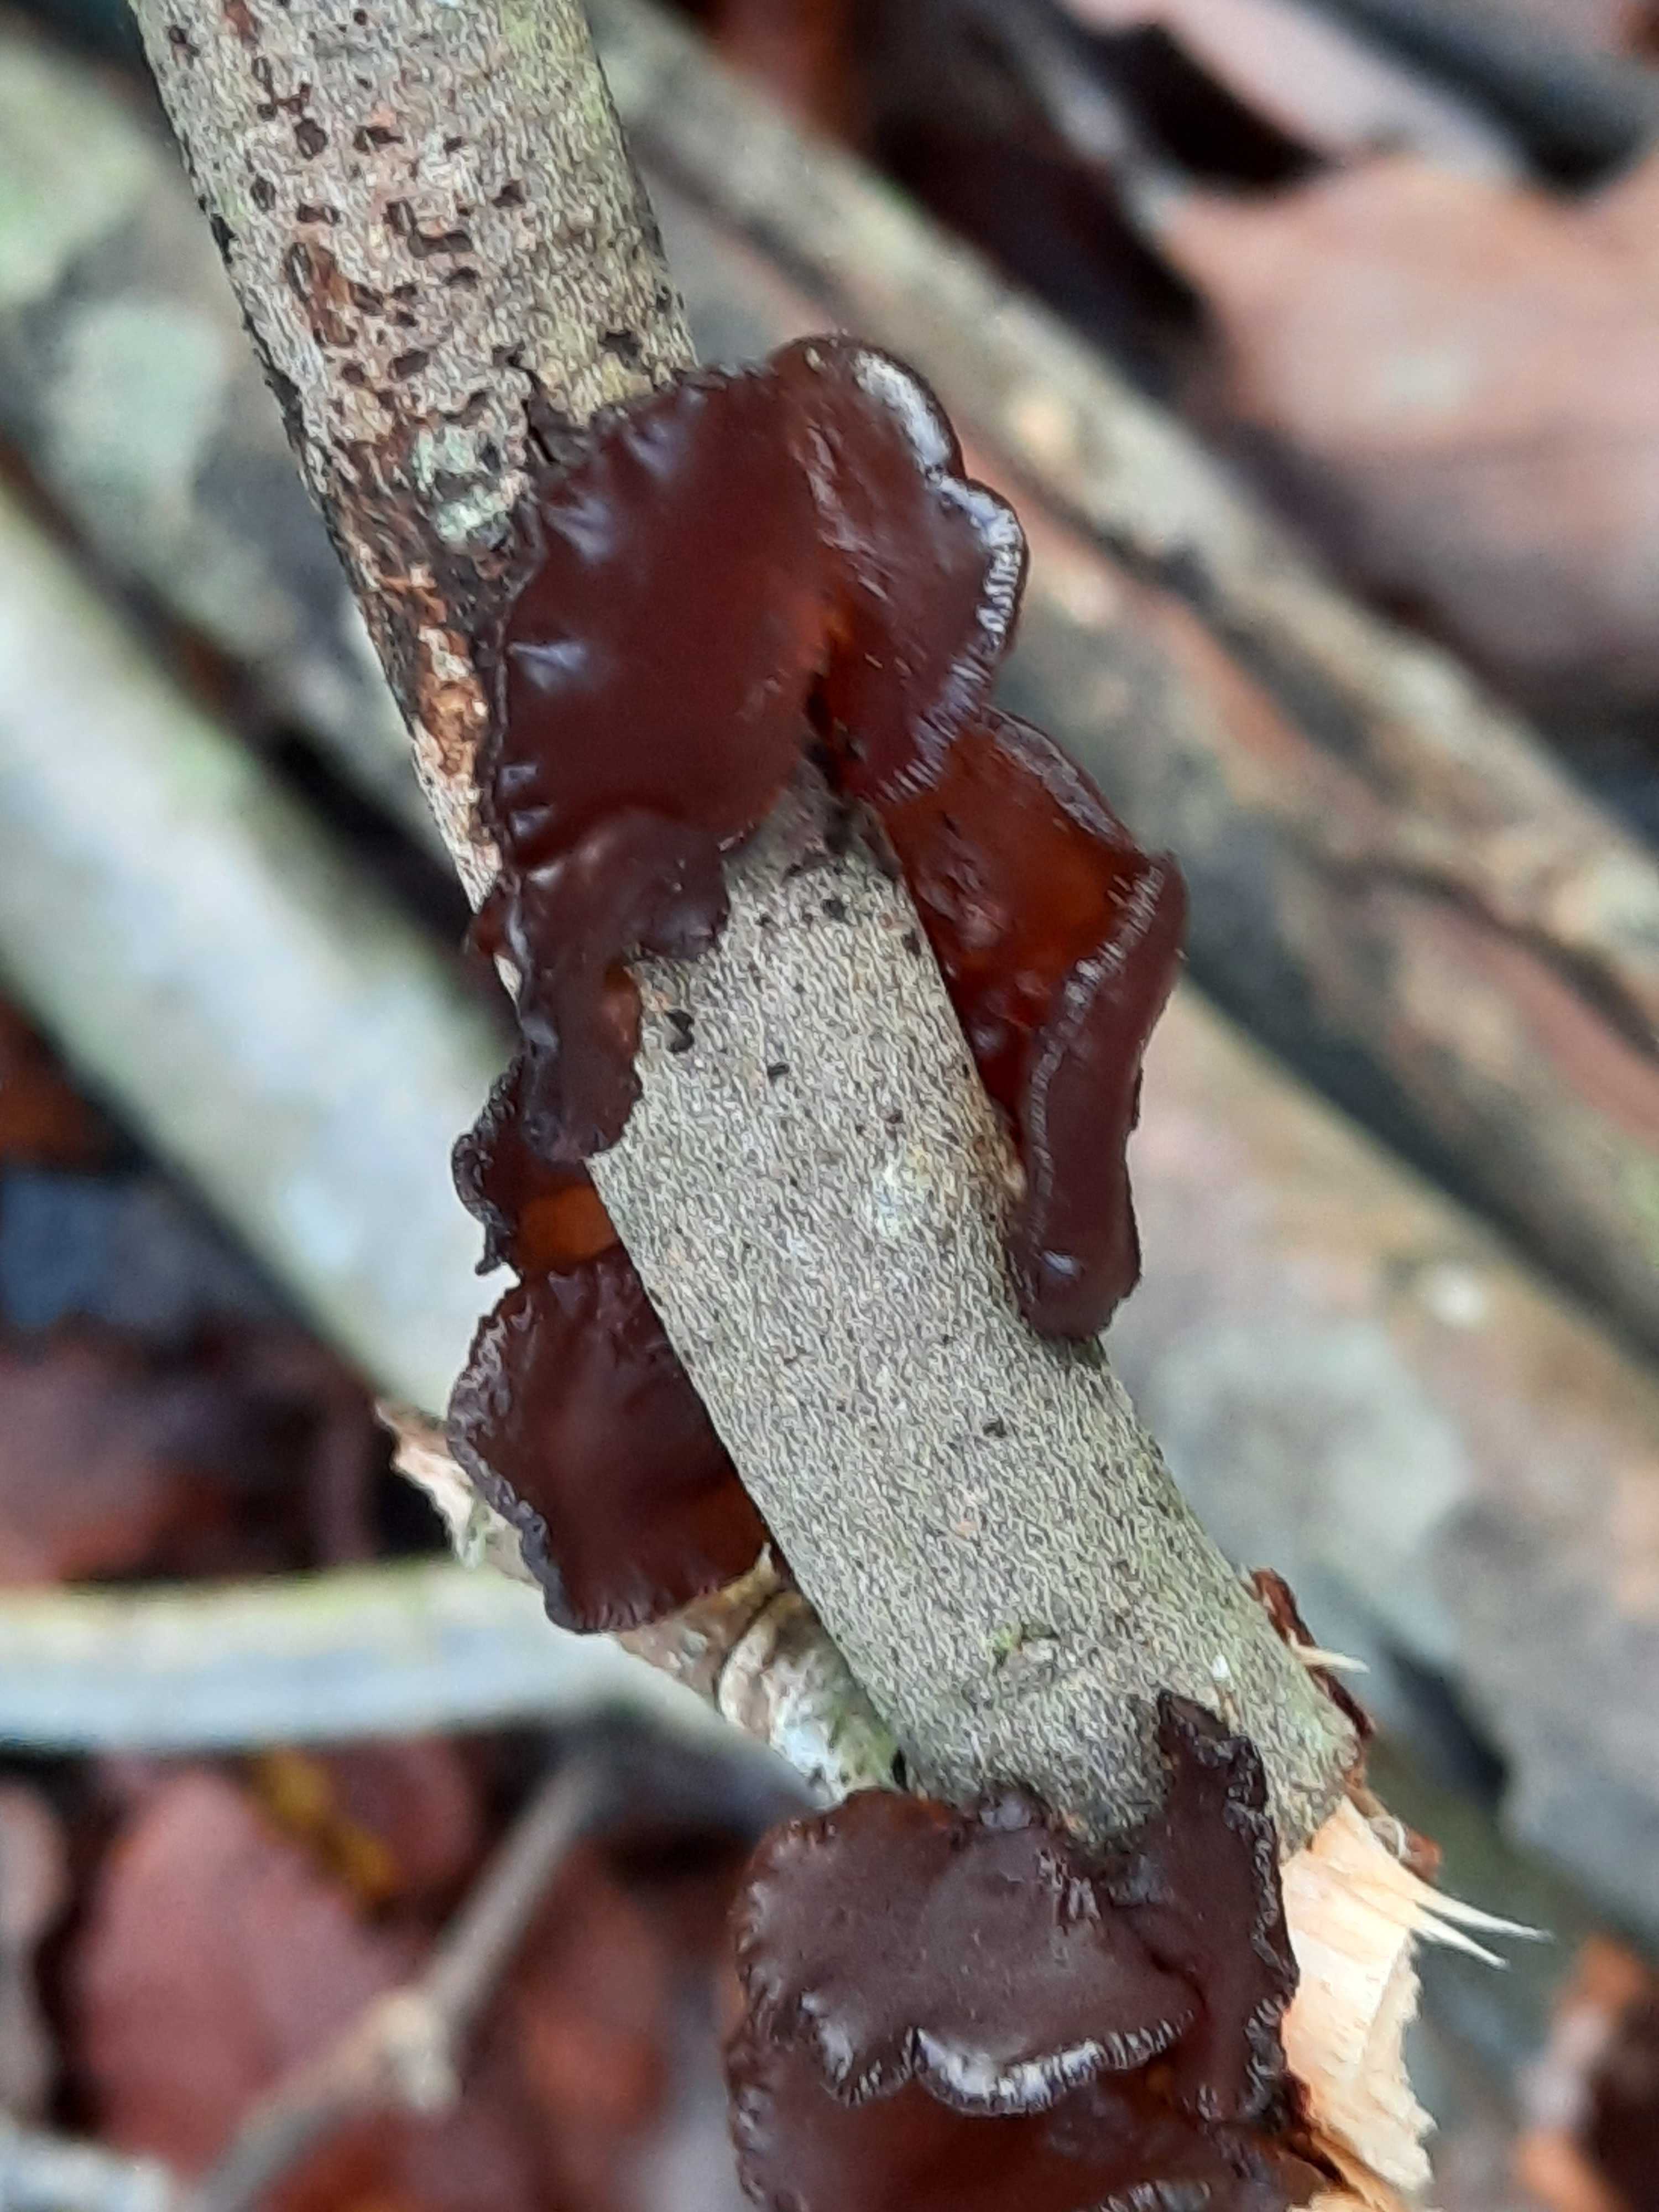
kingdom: Fungi
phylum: Basidiomycota
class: Agaricomycetes
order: Auriculariales
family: Auriculariaceae
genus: Exidia
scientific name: Exidia recisa
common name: pile-bævretop
